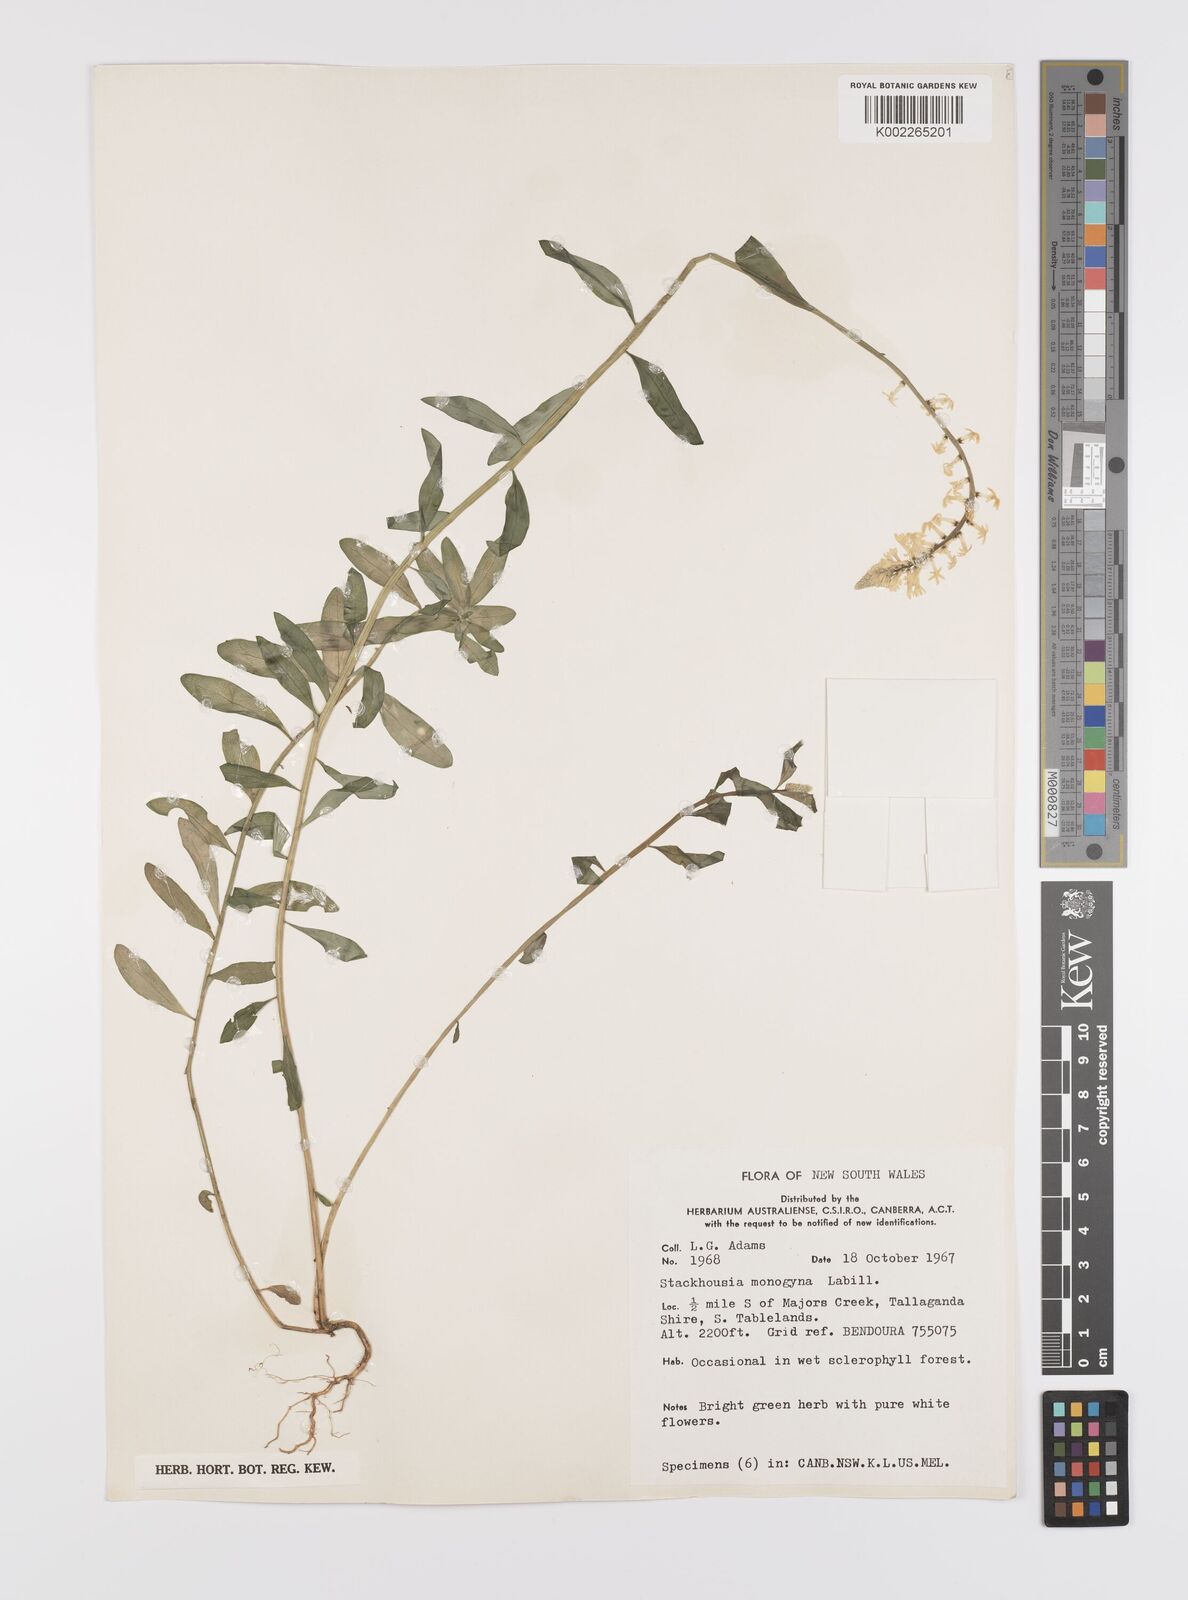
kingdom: Plantae
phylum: Tracheophyta
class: Magnoliopsida
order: Celastrales
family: Celastraceae
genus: Stackhousia
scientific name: Stackhousia monogyna
